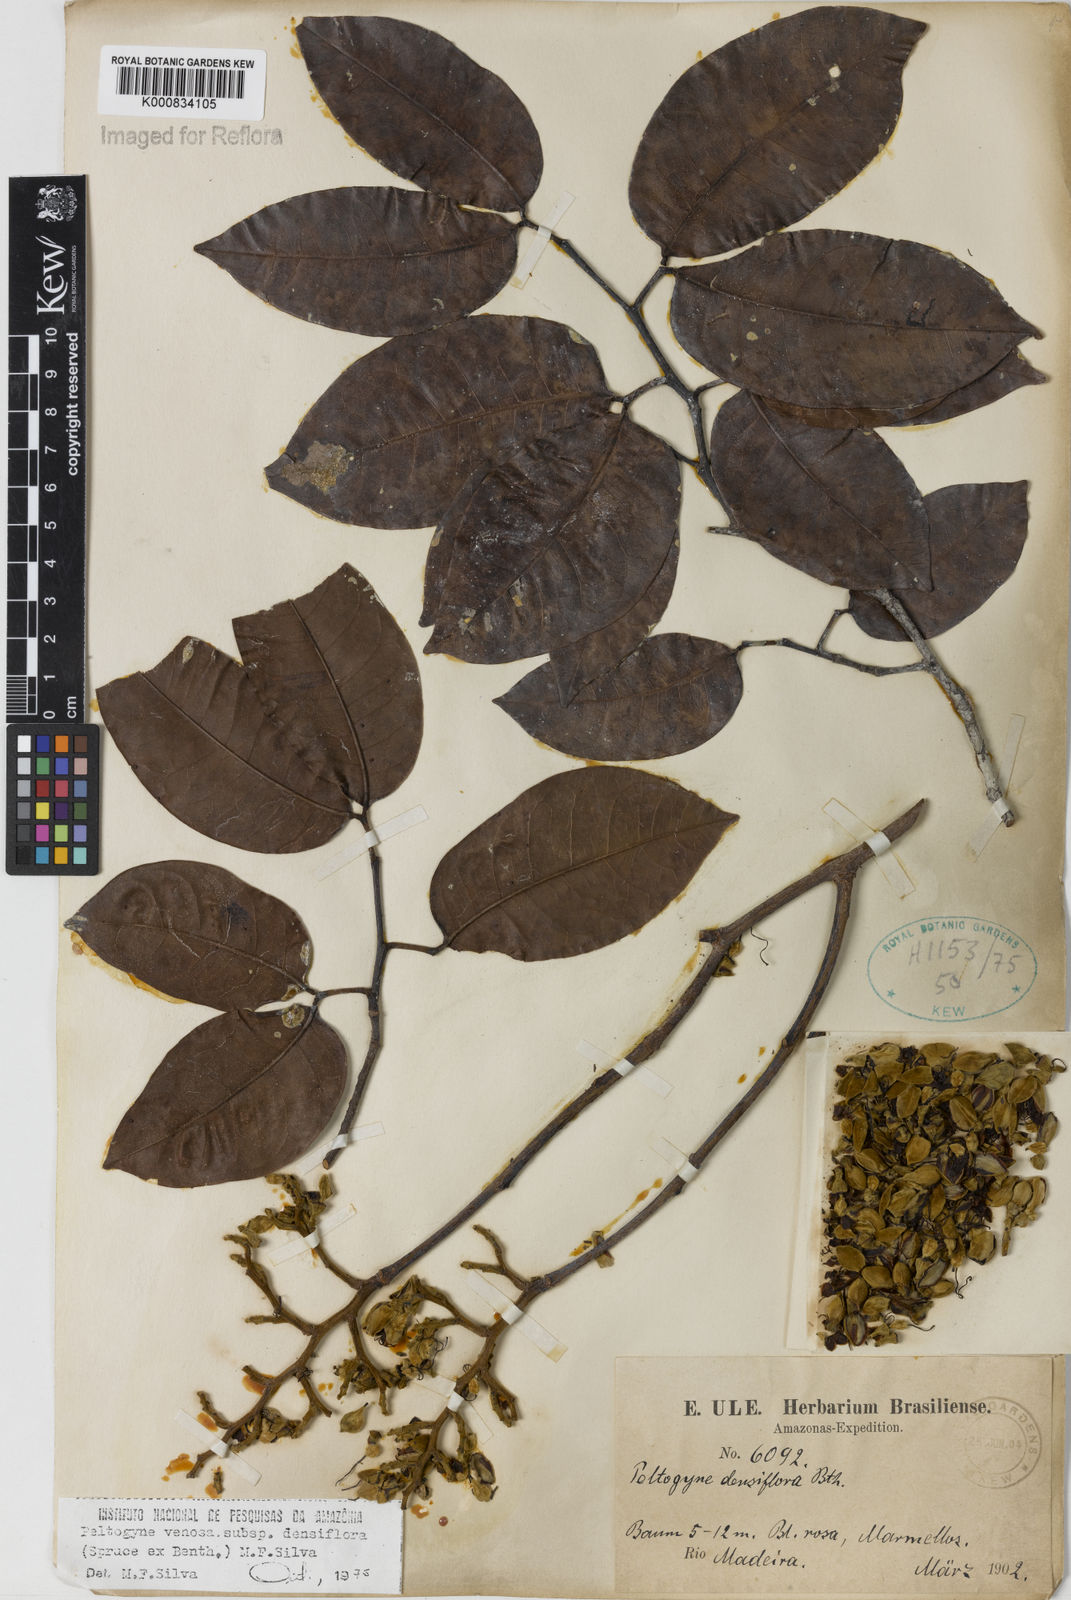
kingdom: Plantae
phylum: Tracheophyta
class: Magnoliopsida
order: Fabales
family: Fabaceae
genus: Peltogyne
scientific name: Peltogyne venosa
